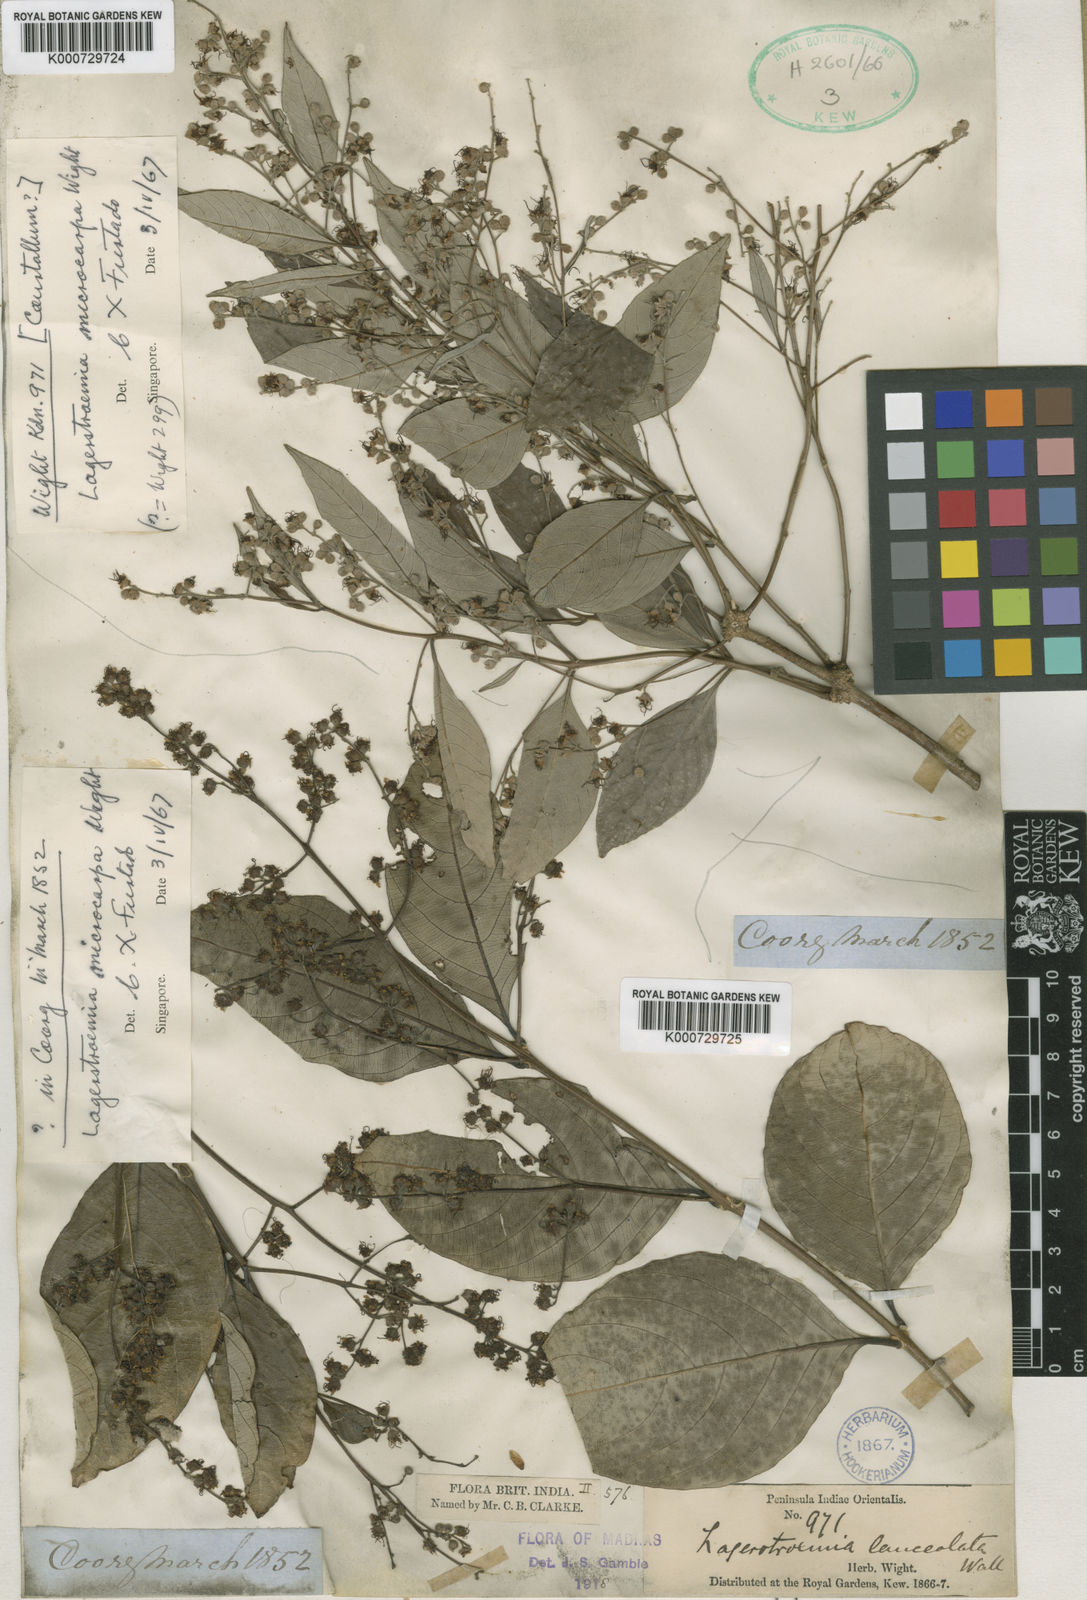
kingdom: Plantae
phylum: Tracheophyta
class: Magnoliopsida
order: Myrtales
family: Lythraceae
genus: Lagerstroemia
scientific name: Lagerstroemia microcarpa
